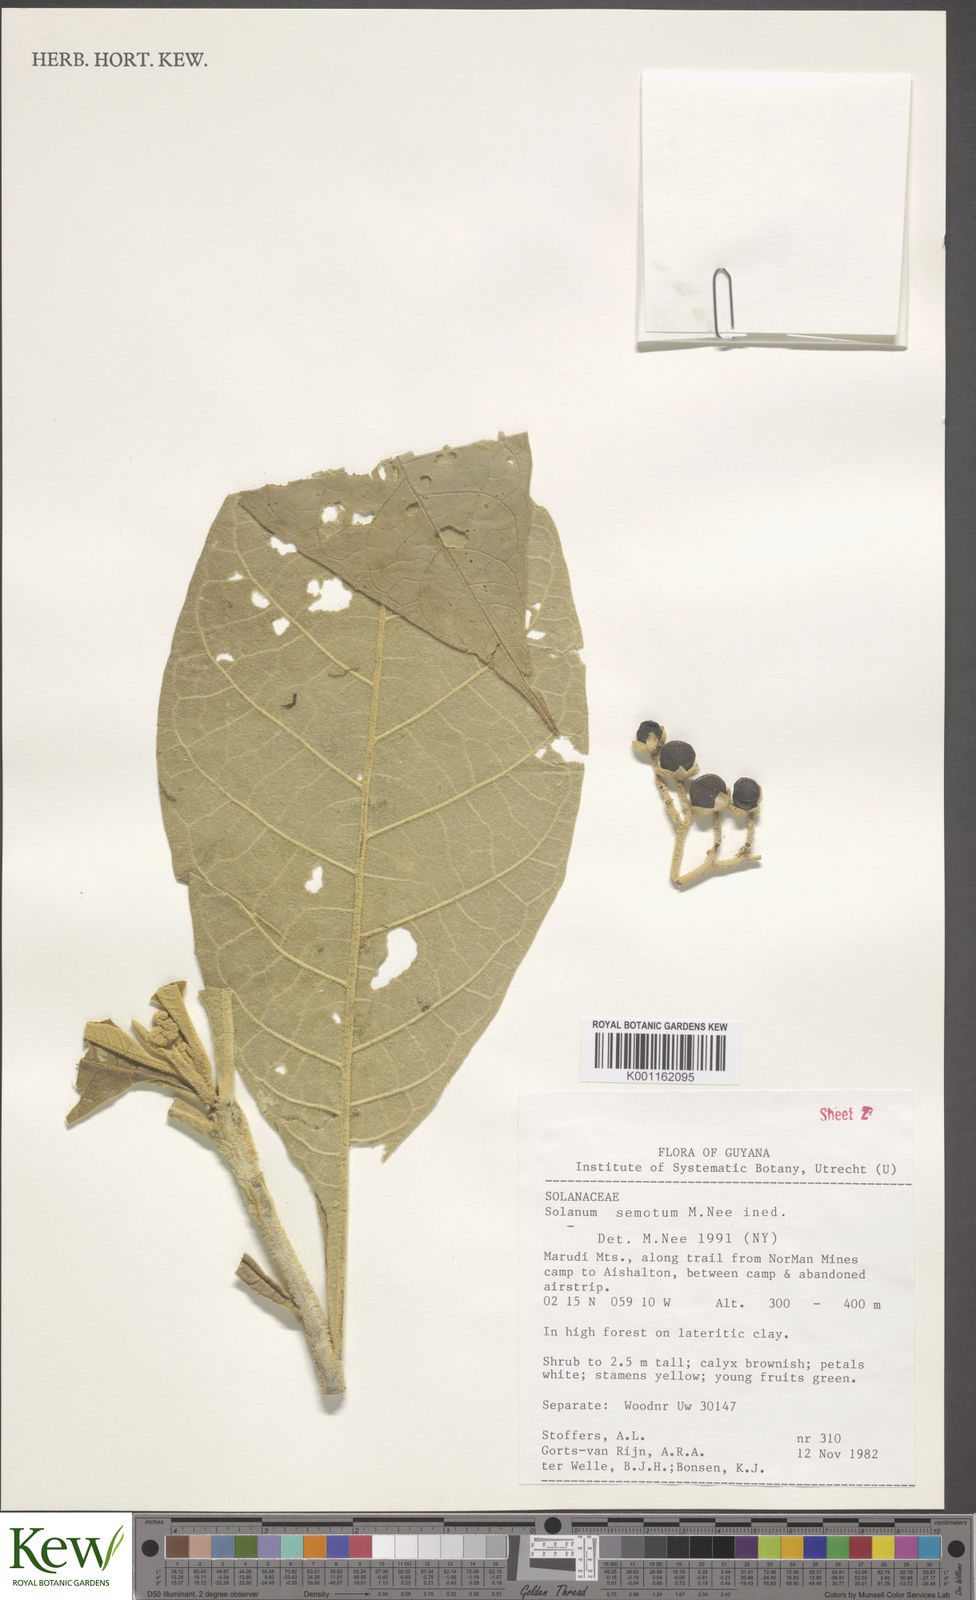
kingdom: Plantae
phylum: Tracheophyta
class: Magnoliopsida
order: Solanales
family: Solanaceae
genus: Solanum
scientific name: Solanum semotum
